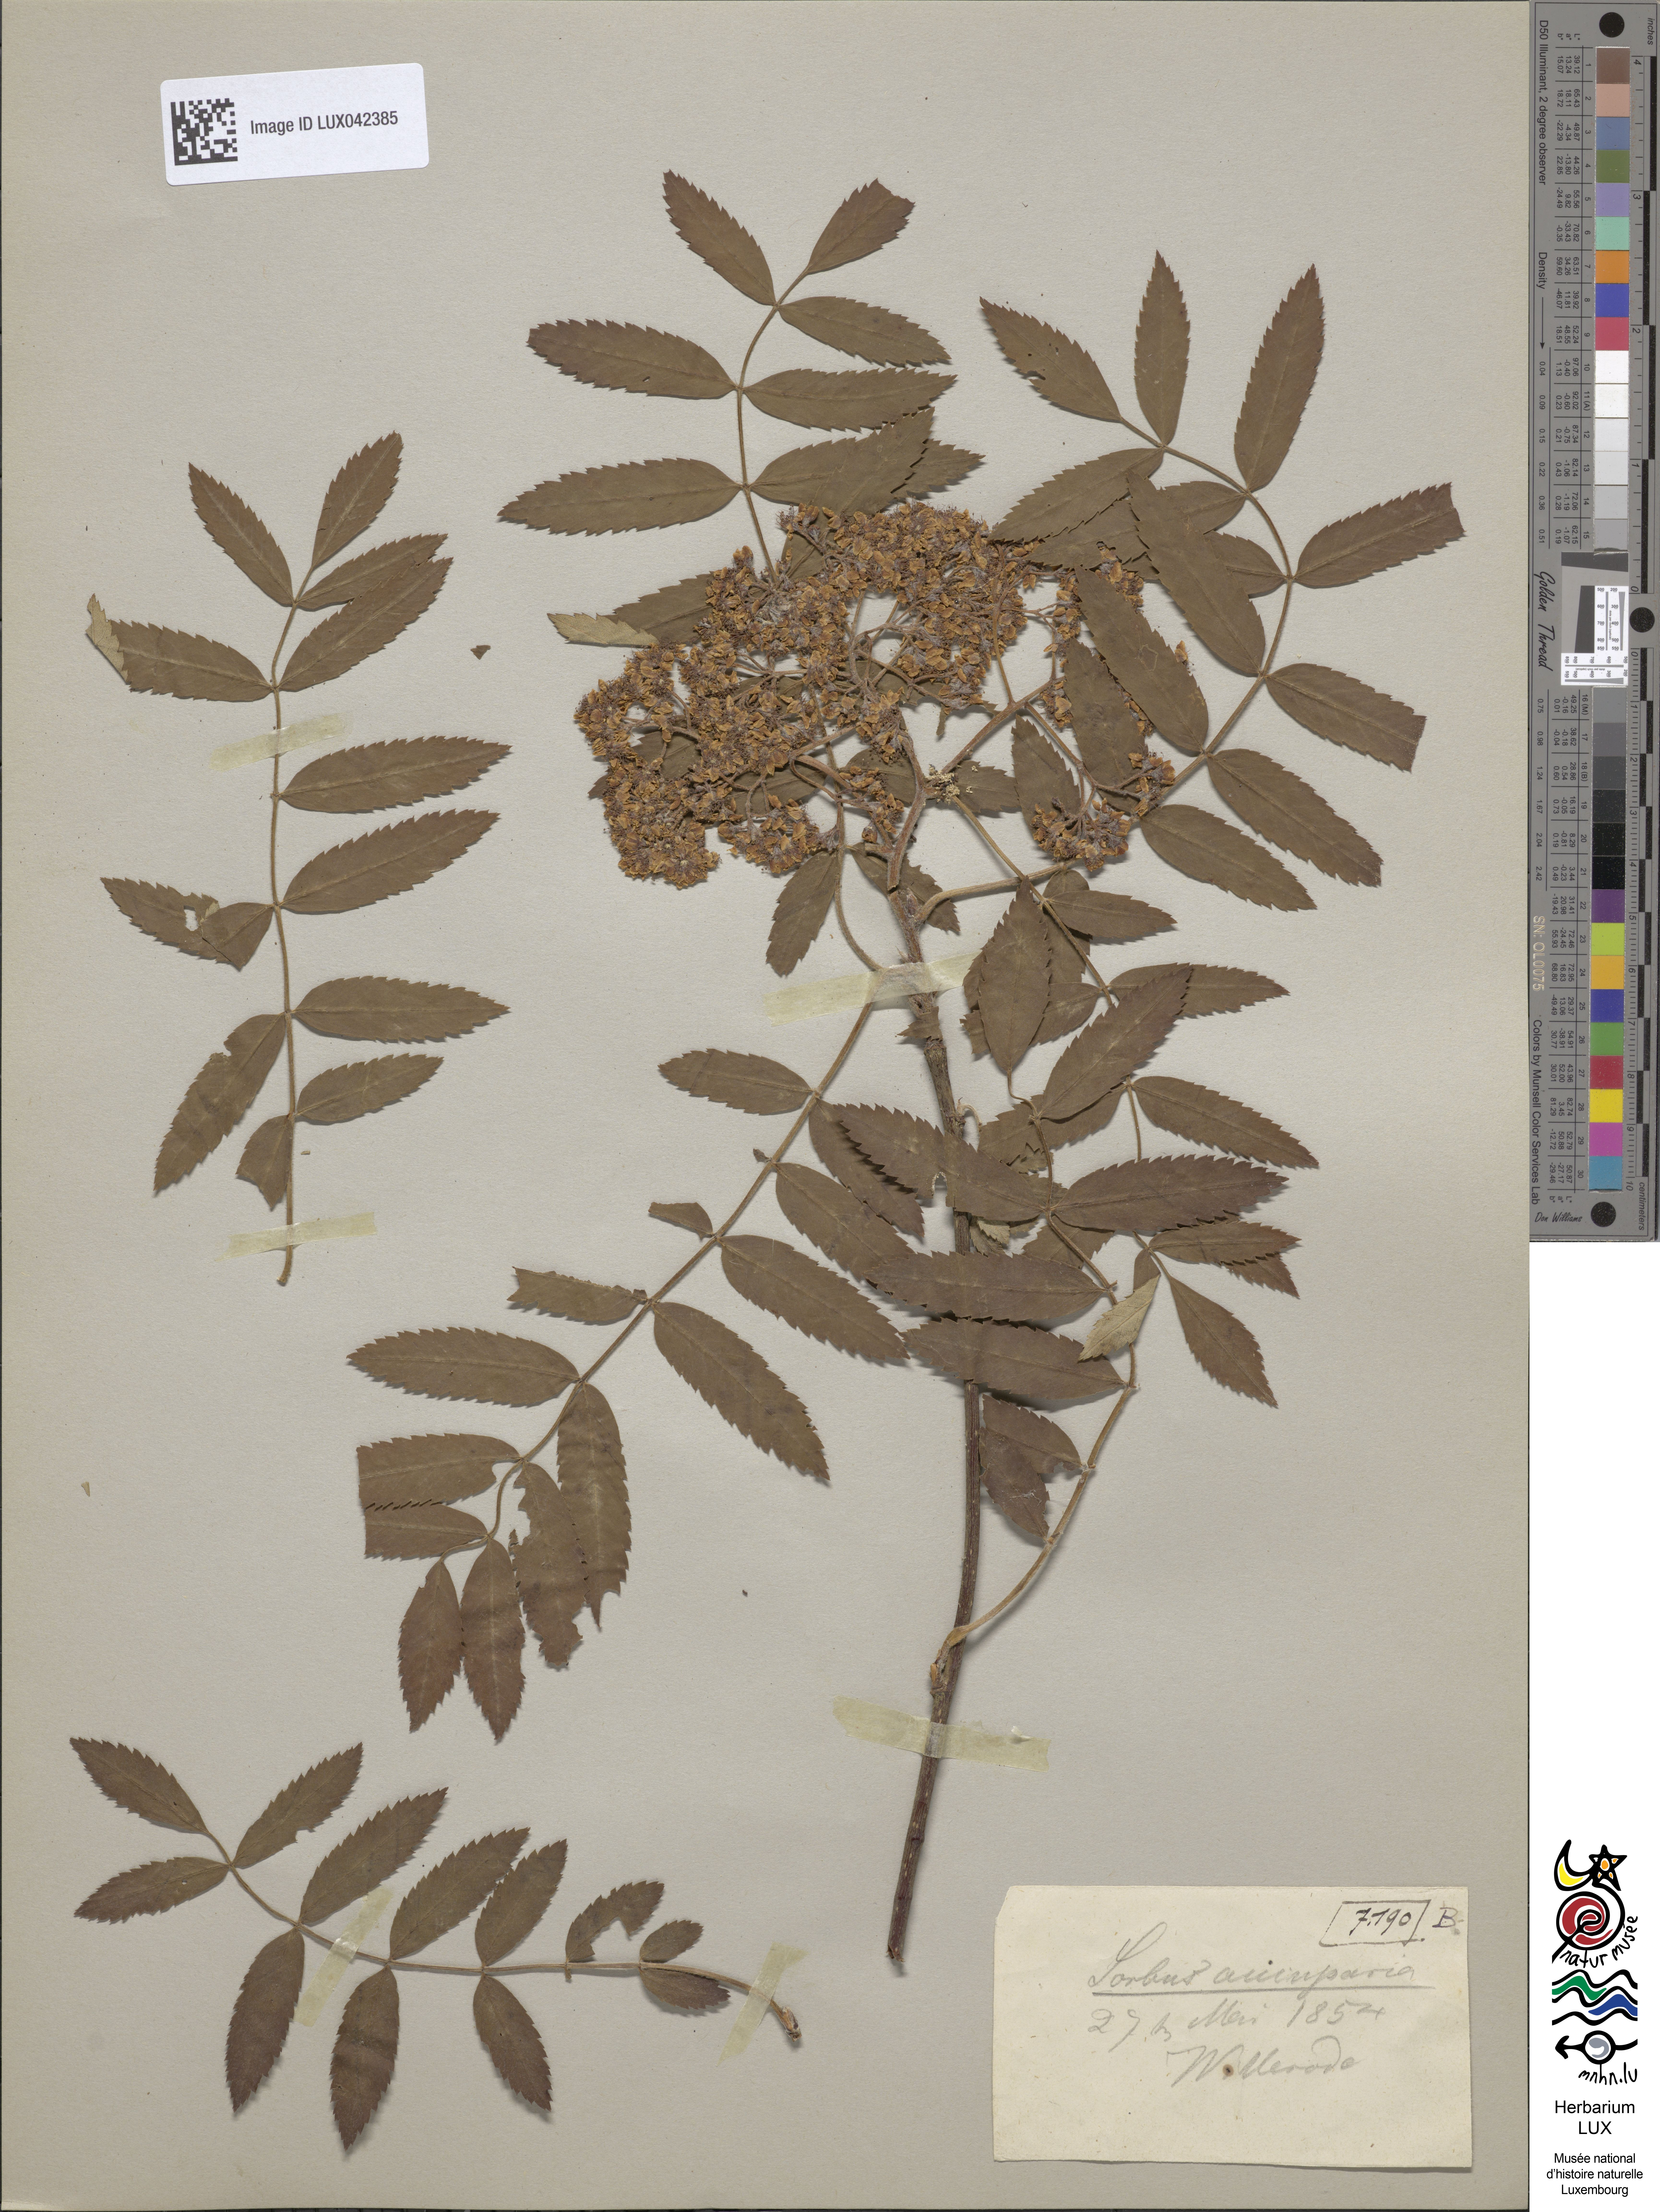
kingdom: Plantae
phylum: Tracheophyta
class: Magnoliopsida
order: Rosales
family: Rosaceae
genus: Sorbus
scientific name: Sorbus aucuparia
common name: Rowan
